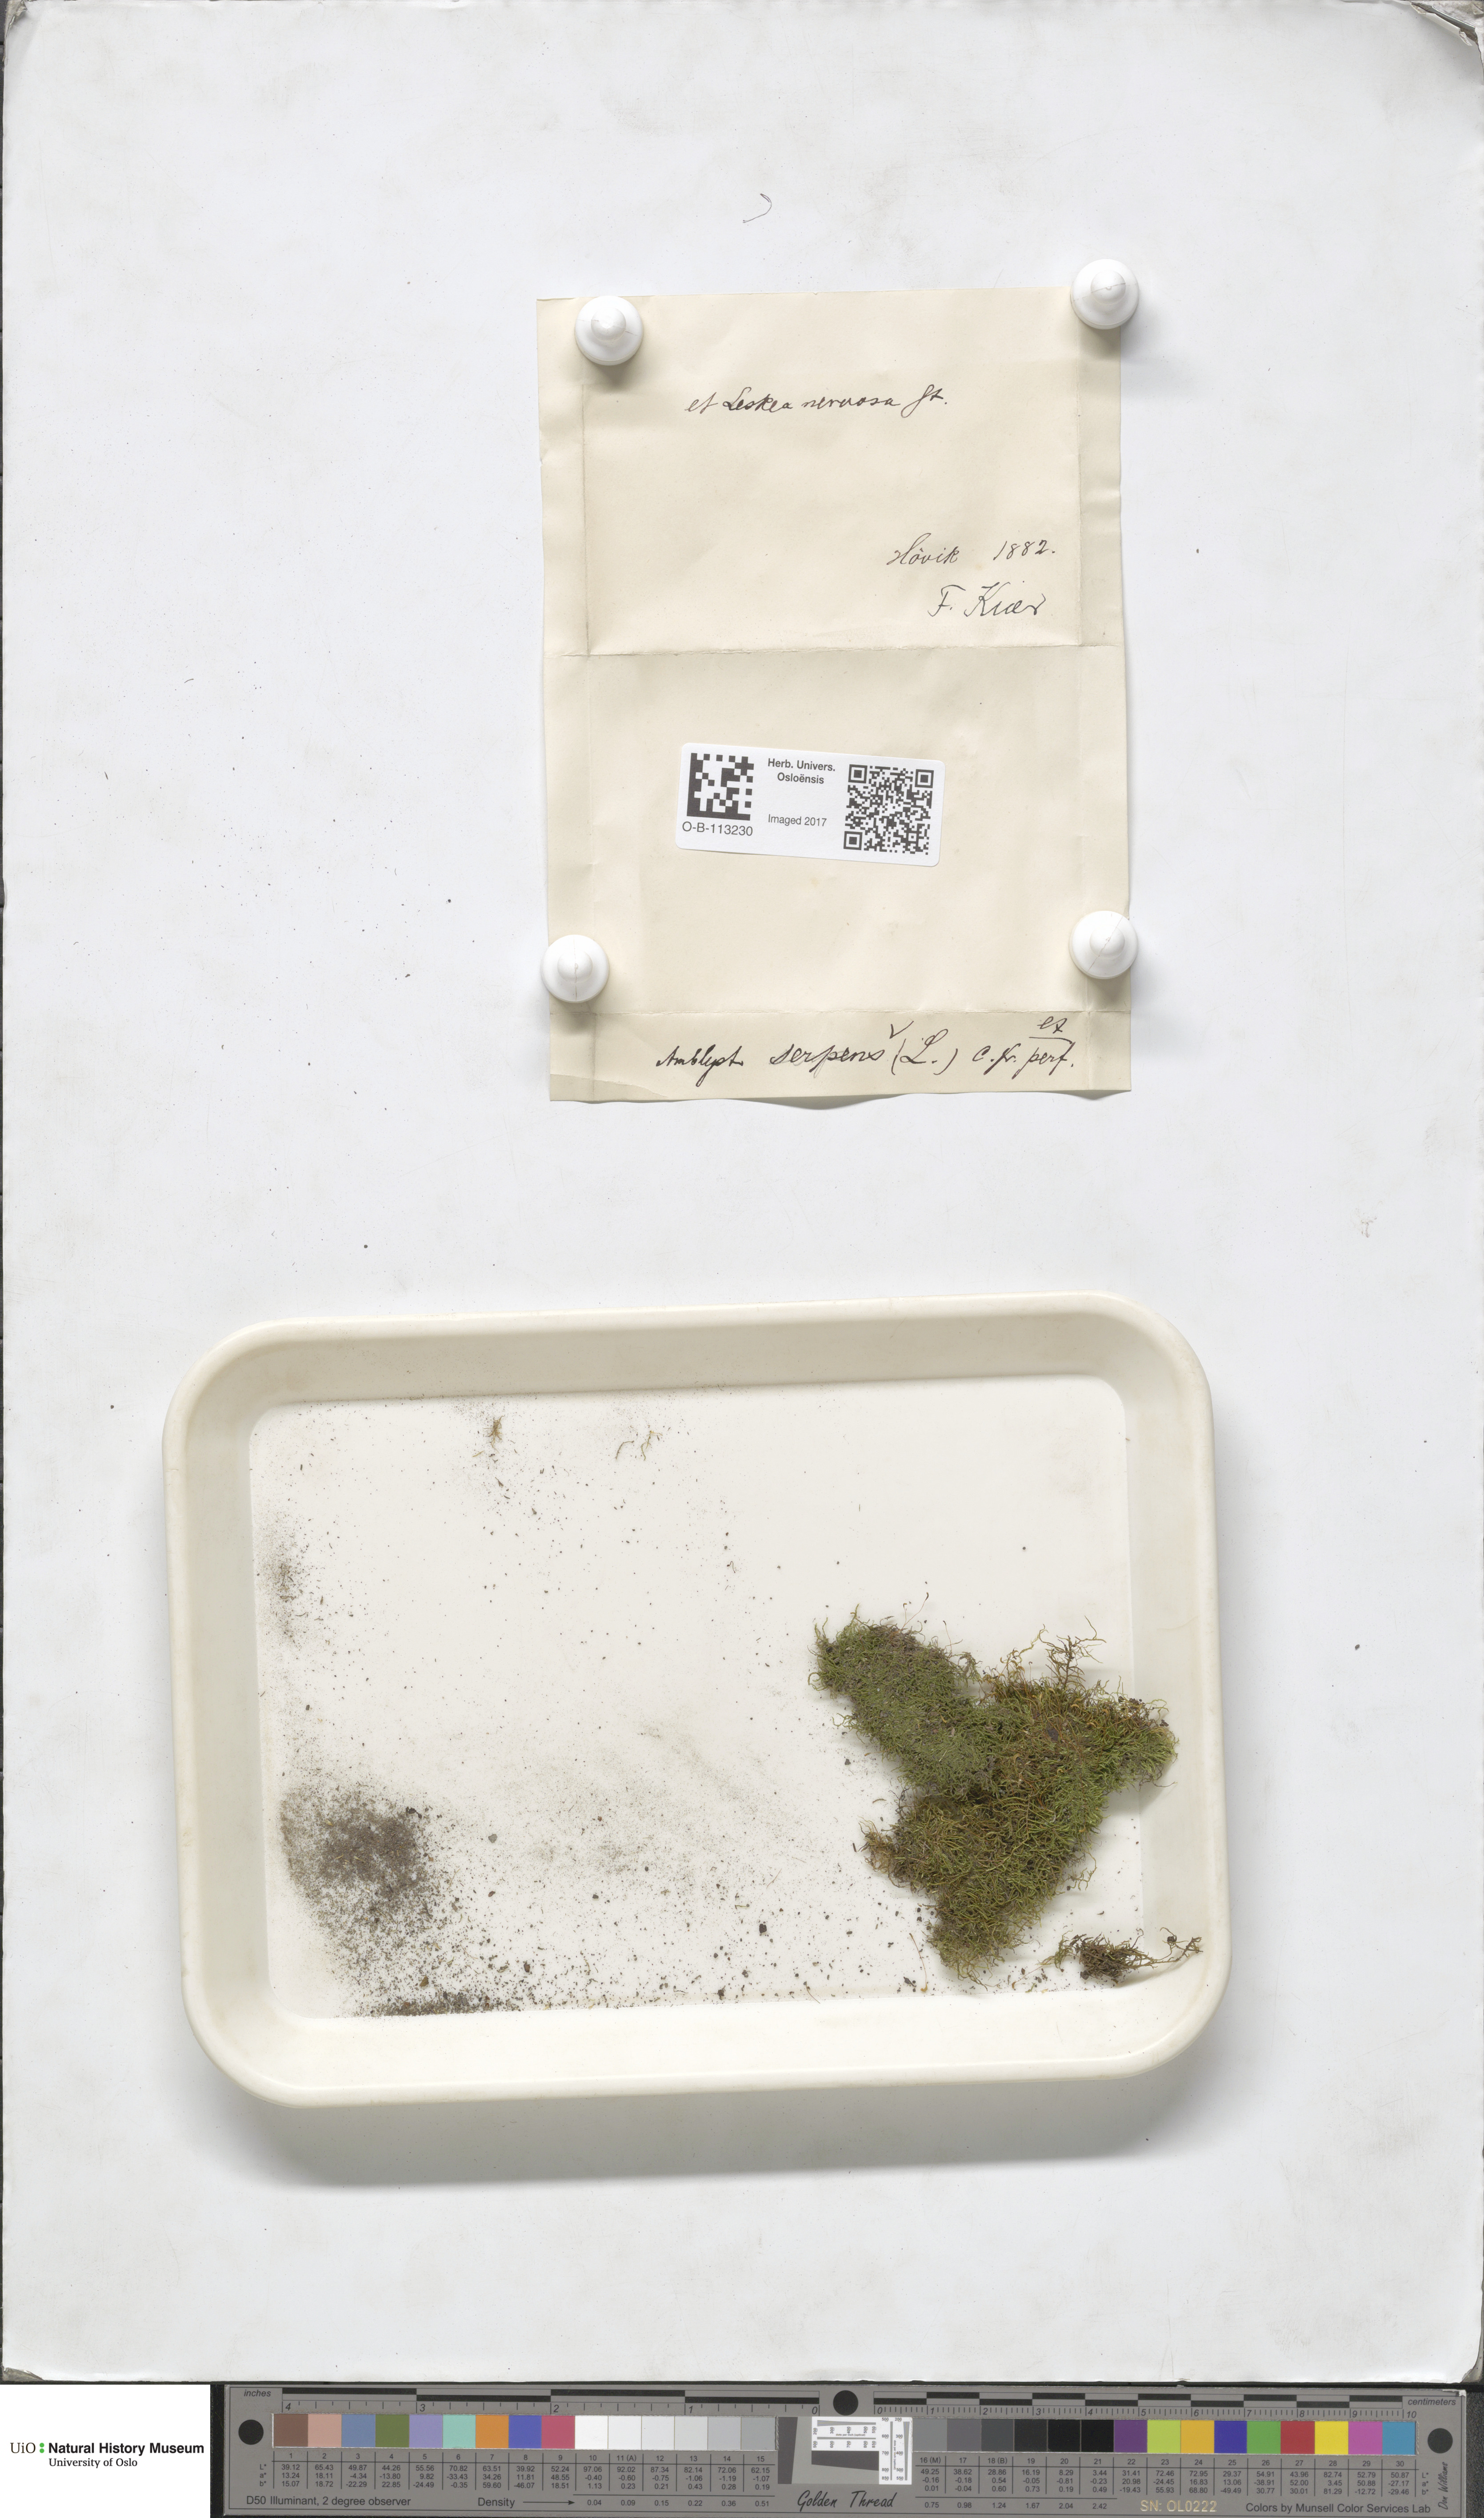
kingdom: Plantae
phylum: Bryophyta
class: Bryopsida
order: Hypnales
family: Amblystegiaceae
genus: Amblystegium
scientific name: Amblystegium serpens
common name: Jurkatzka's feather moss
